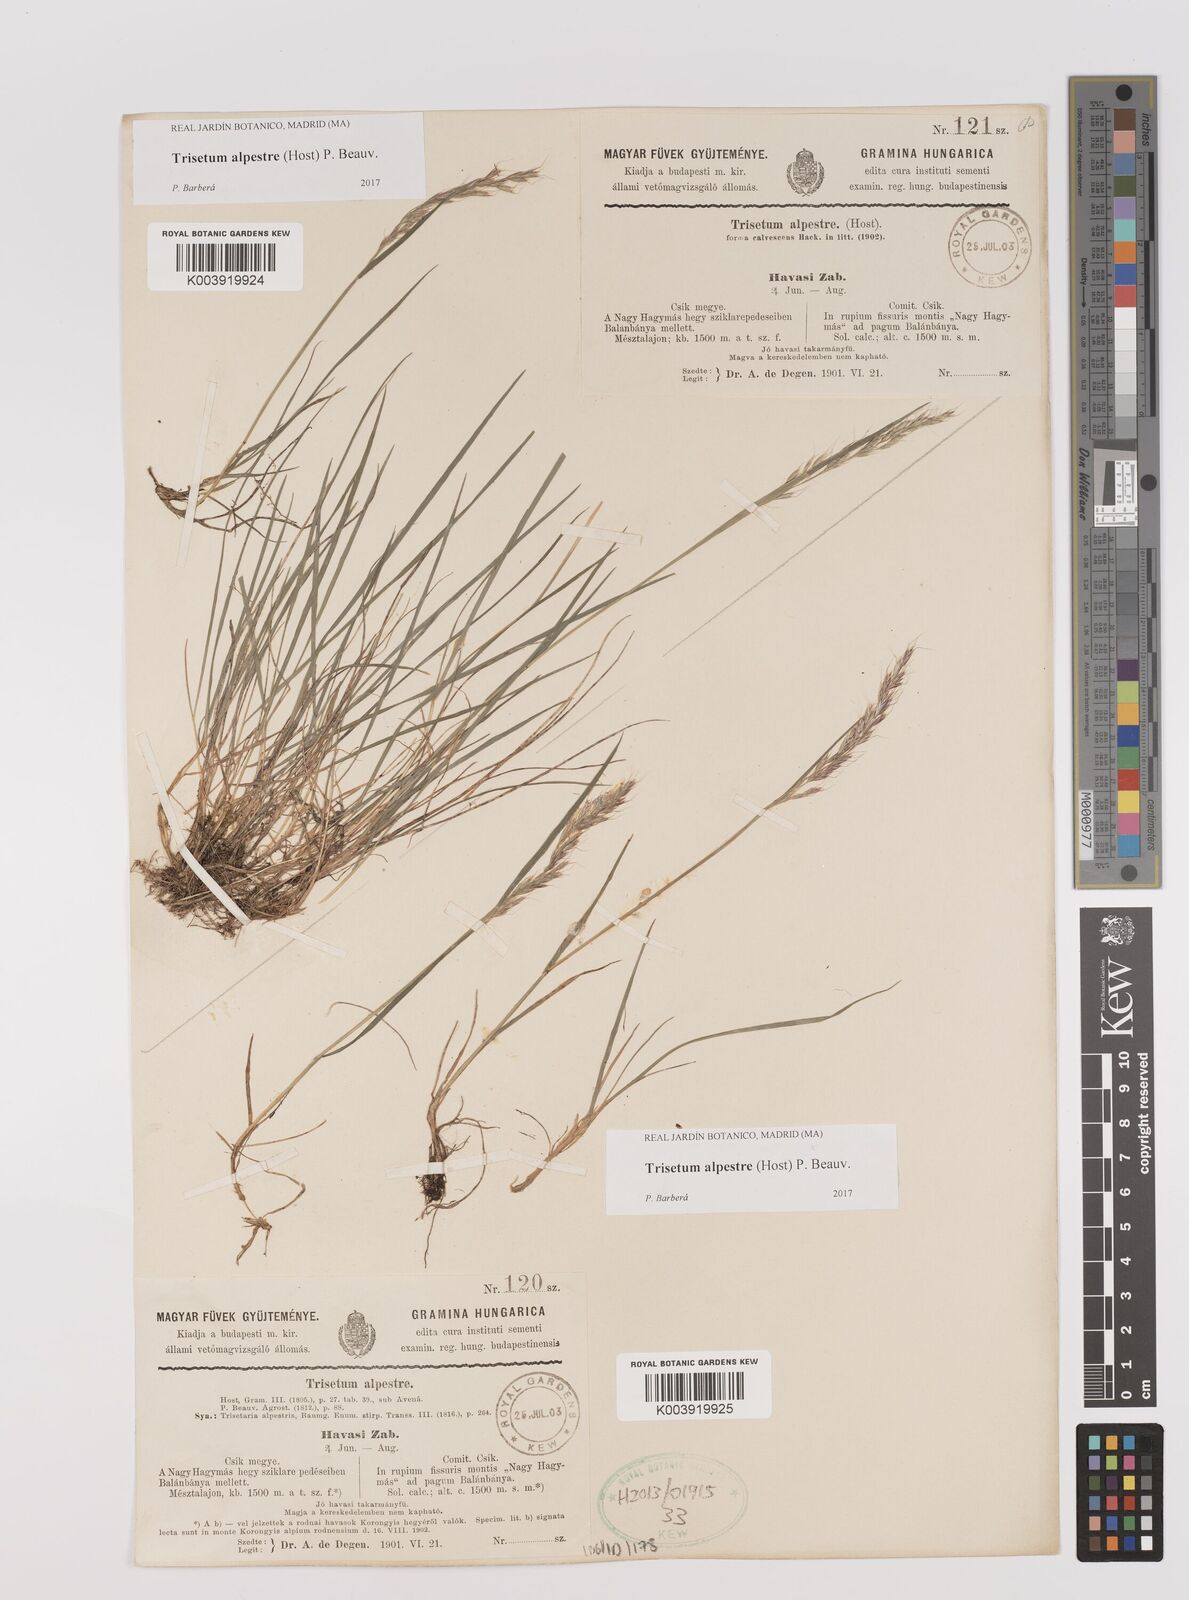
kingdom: Plantae
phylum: Tracheophyta
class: Liliopsida
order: Poales
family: Poaceae
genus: Trisetum
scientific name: Trisetum alpestre
